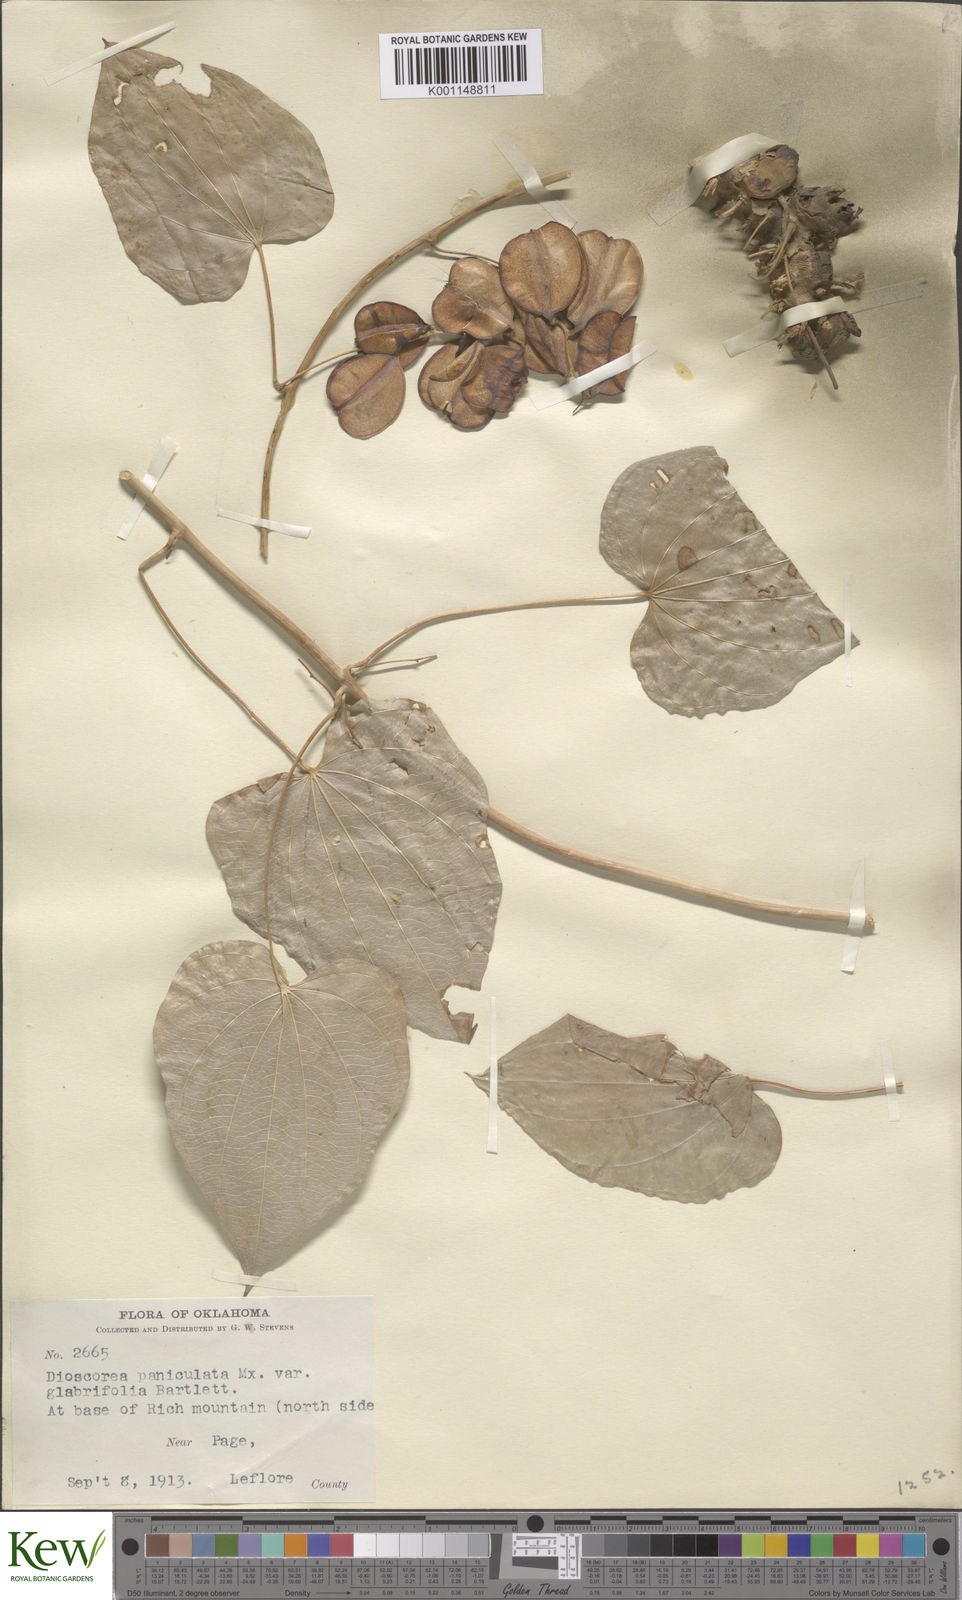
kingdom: Plantae
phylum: Tracheophyta
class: Liliopsida
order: Dioscoreales
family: Dioscoreaceae
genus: Dioscorea
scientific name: Dioscorea villosa
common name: Wild yam
